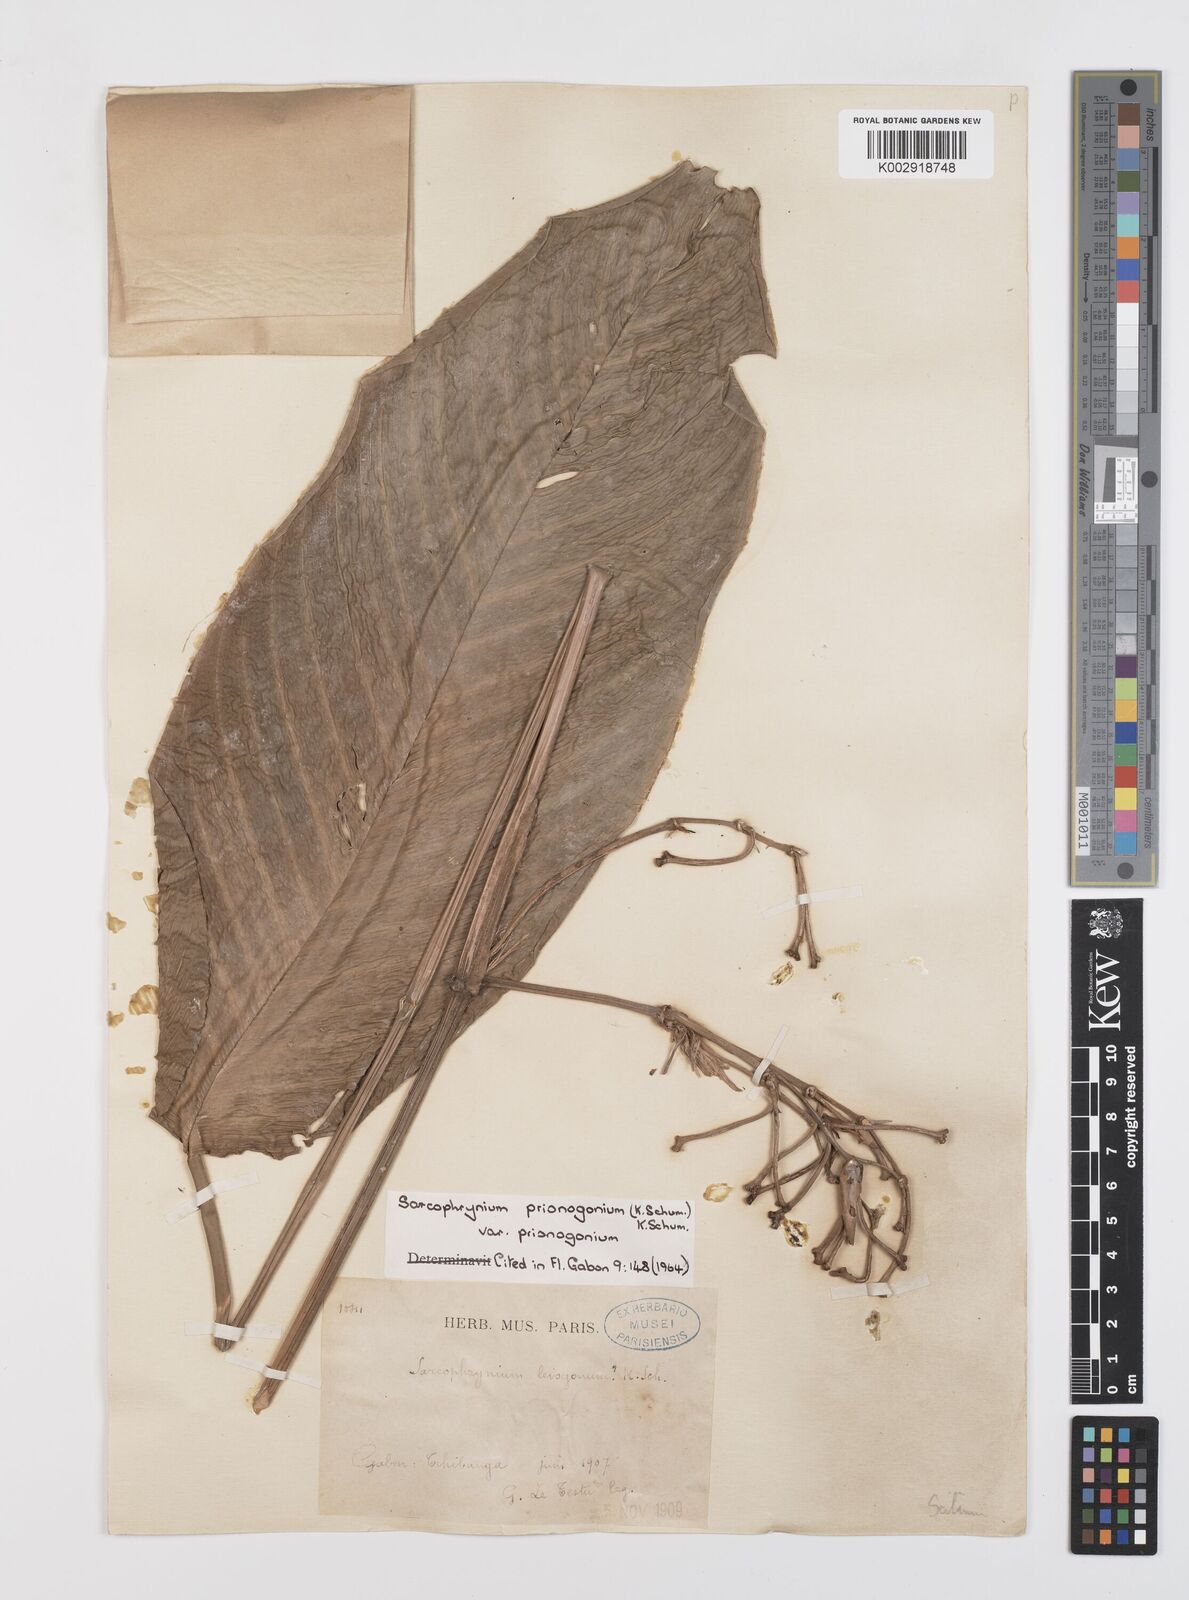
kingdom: Plantae
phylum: Tracheophyta
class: Liliopsida
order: Zingiberales
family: Marantaceae
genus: Sarcophrynium
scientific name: Sarcophrynium prionogonium
